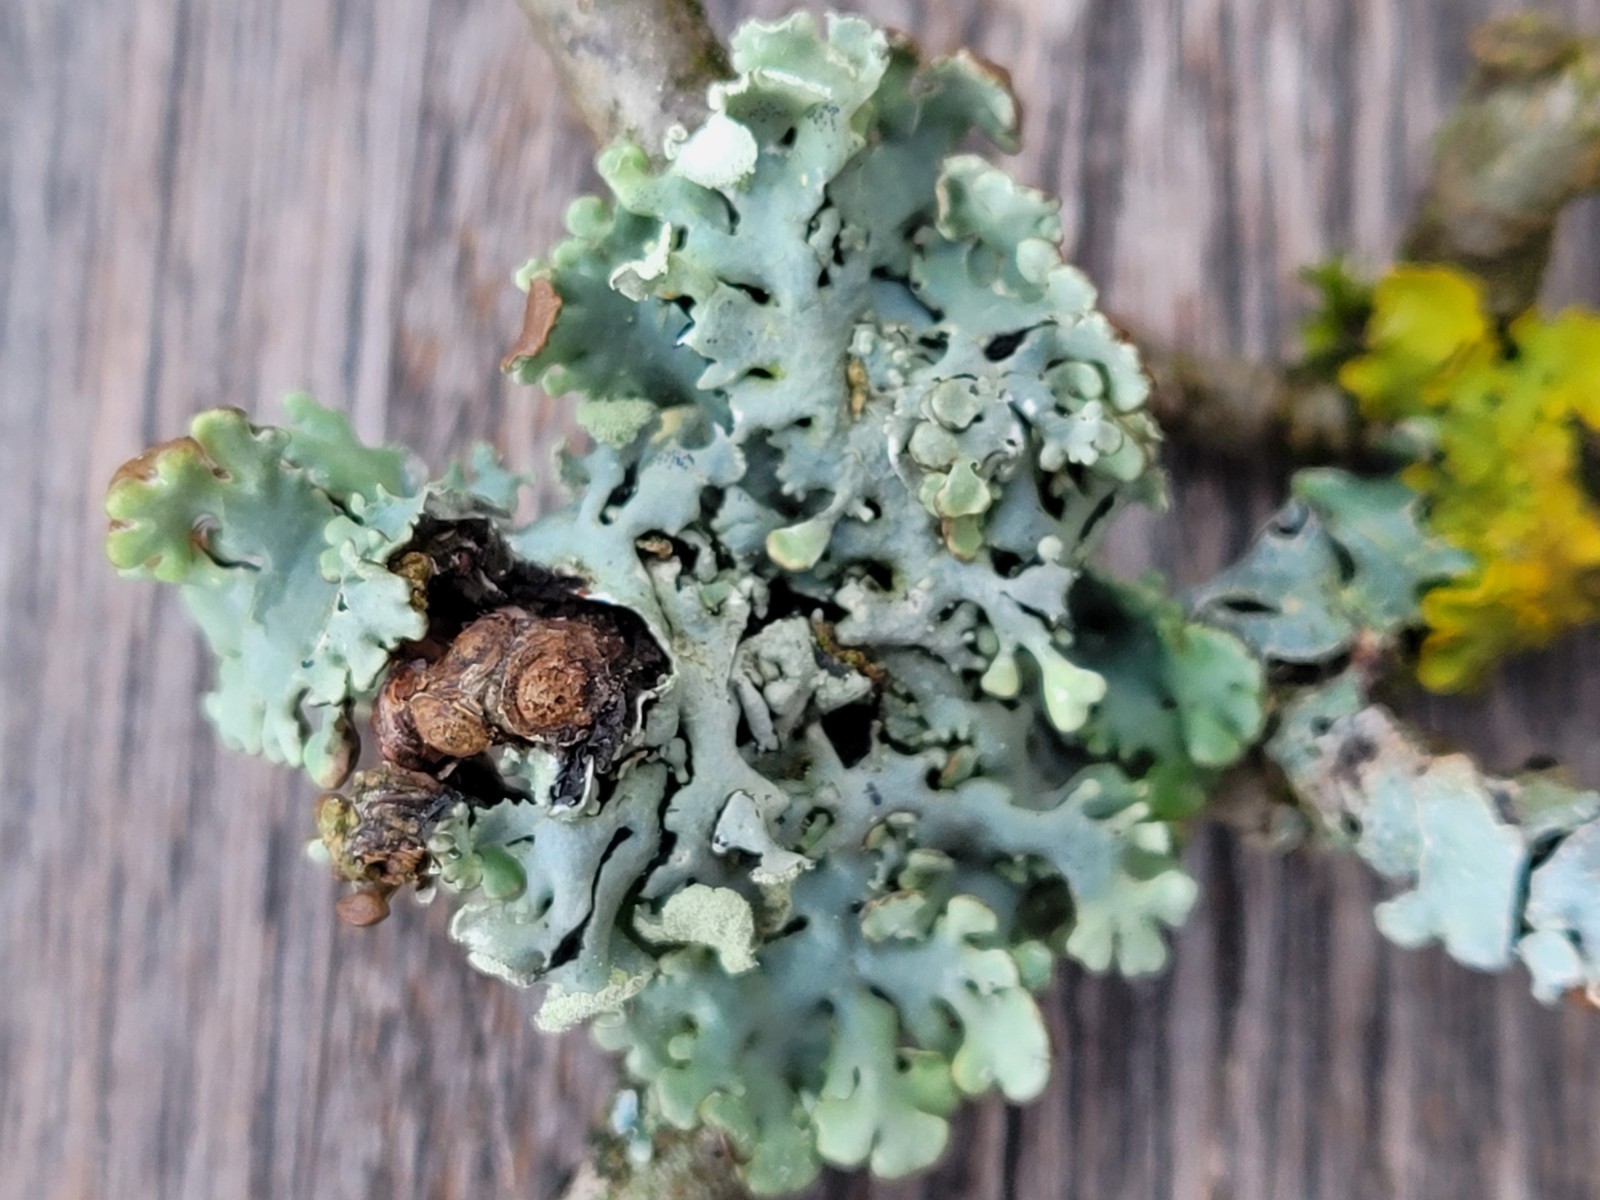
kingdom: Fungi
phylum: Ascomycota
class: Lecanoromycetes
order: Lecanorales
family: Parmeliaceae
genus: Hypogymnia
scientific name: Hypogymnia physodes
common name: almindelig kvistlav
